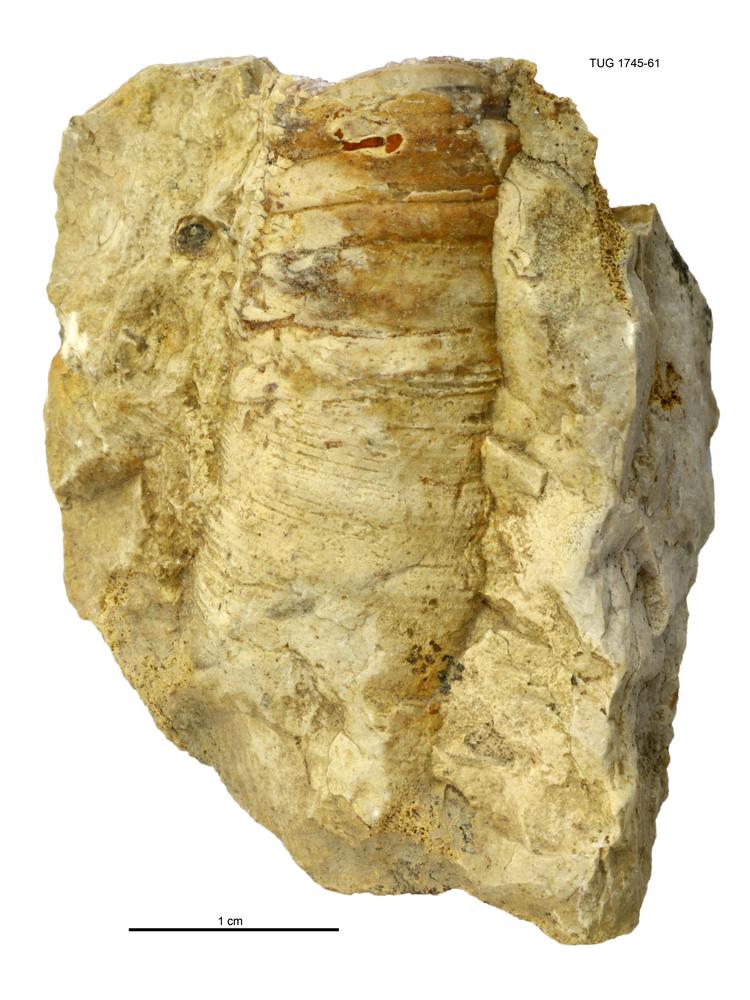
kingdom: Animalia
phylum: Mollusca
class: Cephalopoda
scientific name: Cephalopoda
